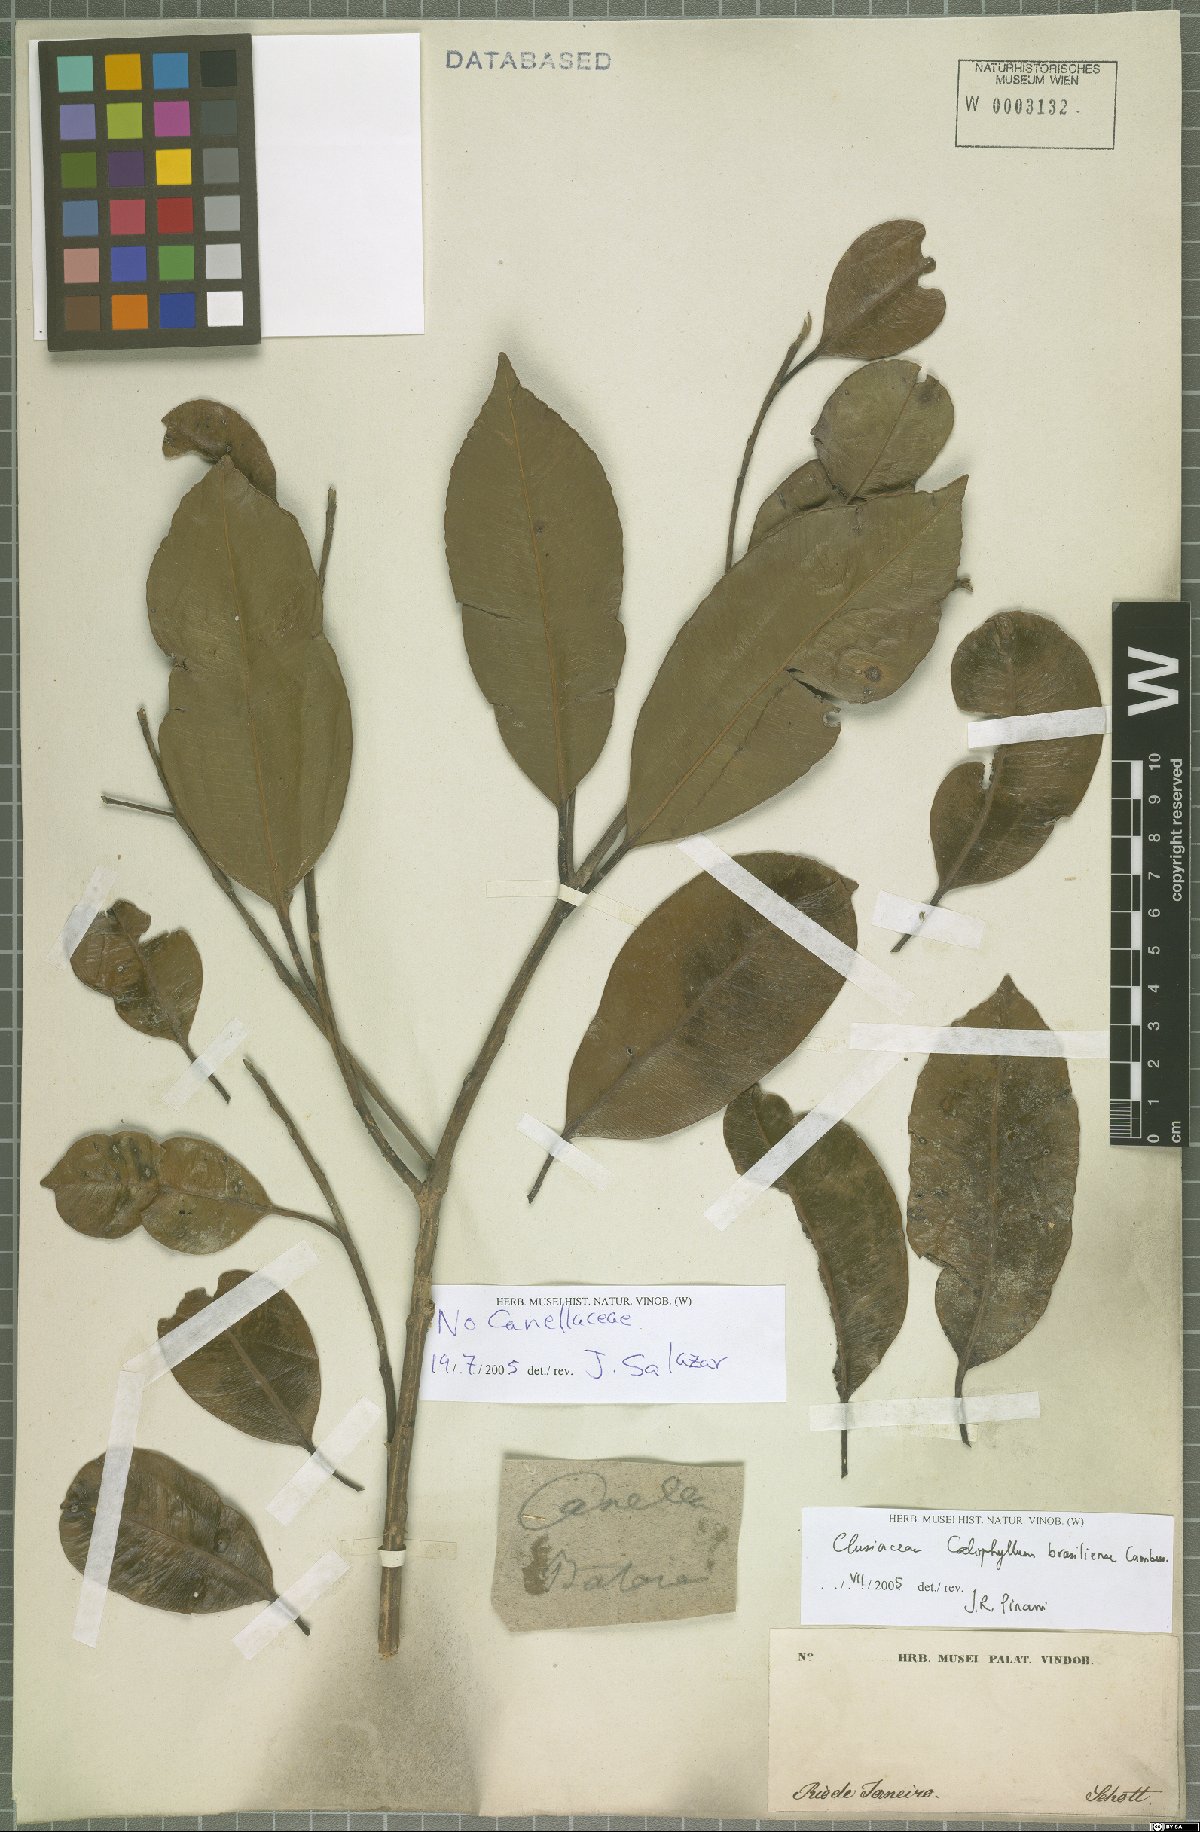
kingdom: Plantae
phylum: Tracheophyta
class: Magnoliopsida
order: Malpighiales
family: Calophyllaceae
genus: Calophyllum
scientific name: Calophyllum brasiliense
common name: Santa maria
